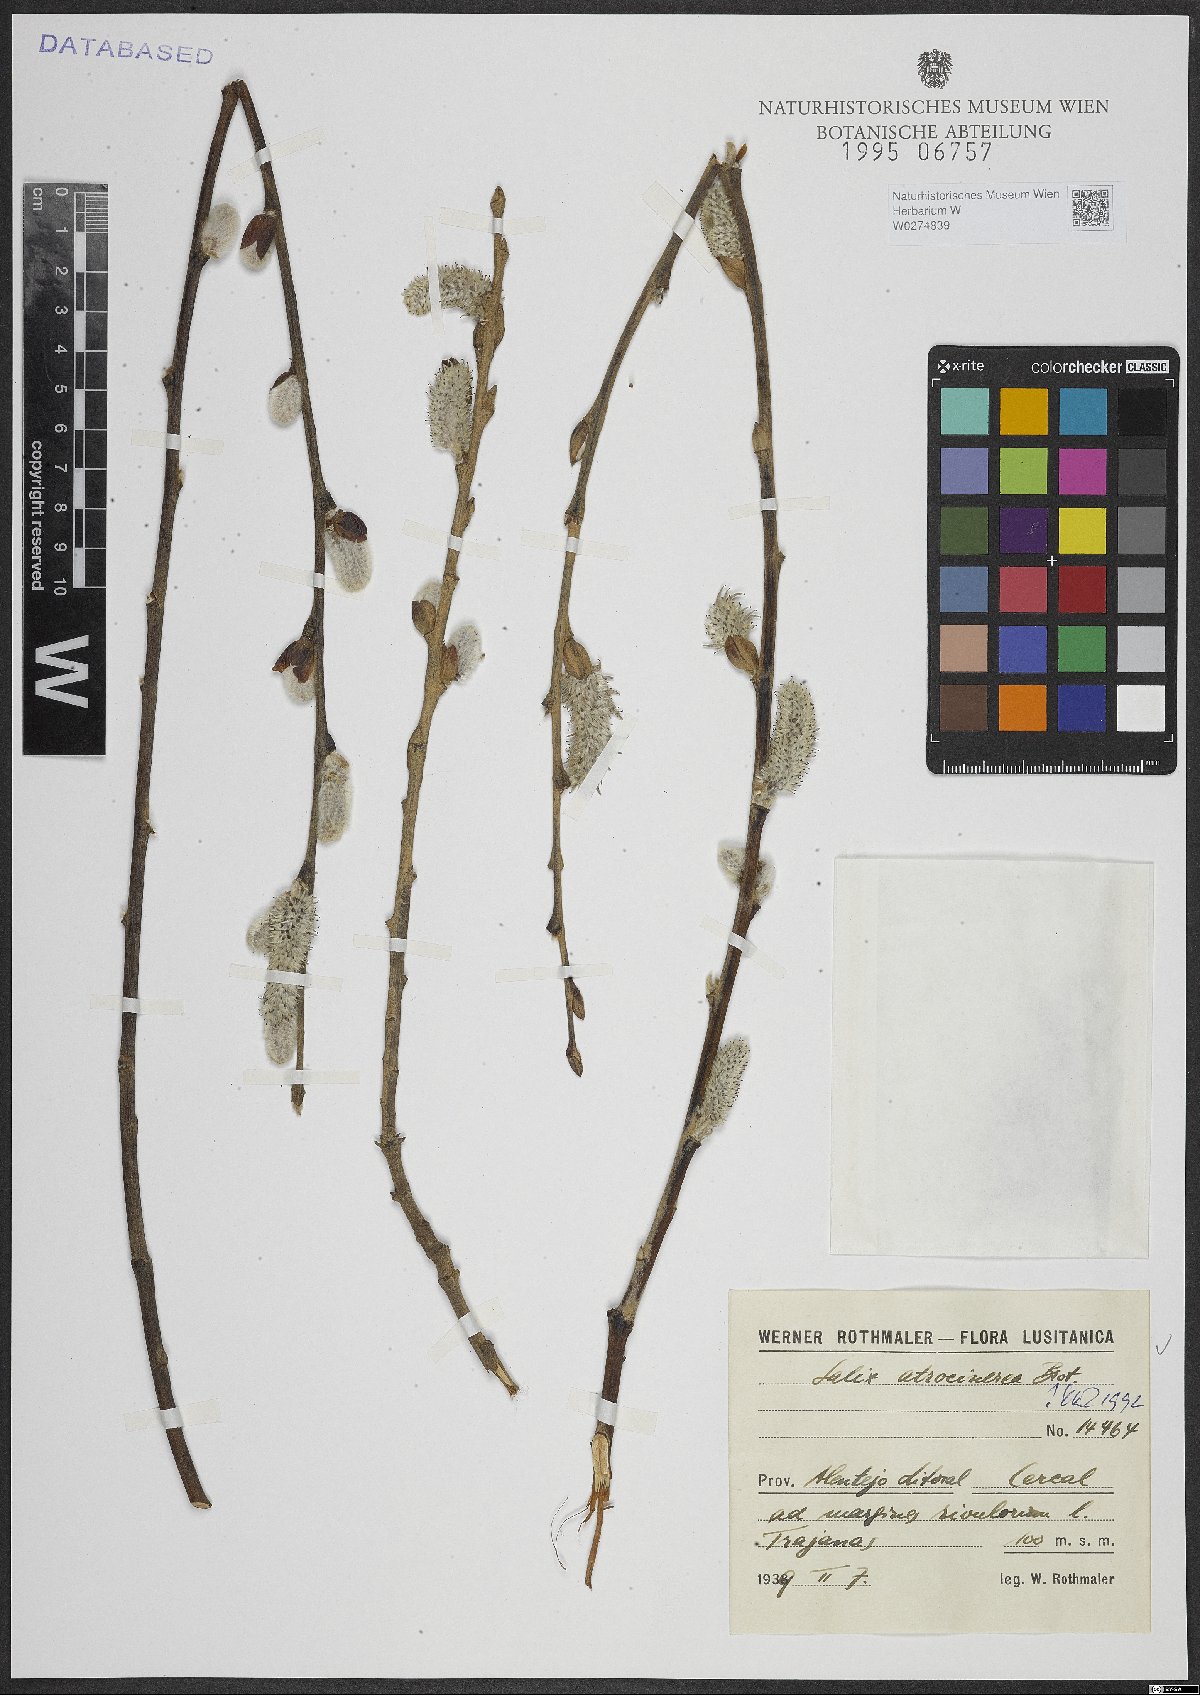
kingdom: Plantae
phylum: Tracheophyta
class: Magnoliopsida
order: Malpighiales
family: Salicaceae
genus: Salix
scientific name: Salix atrocinerea
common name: Rusty willow
